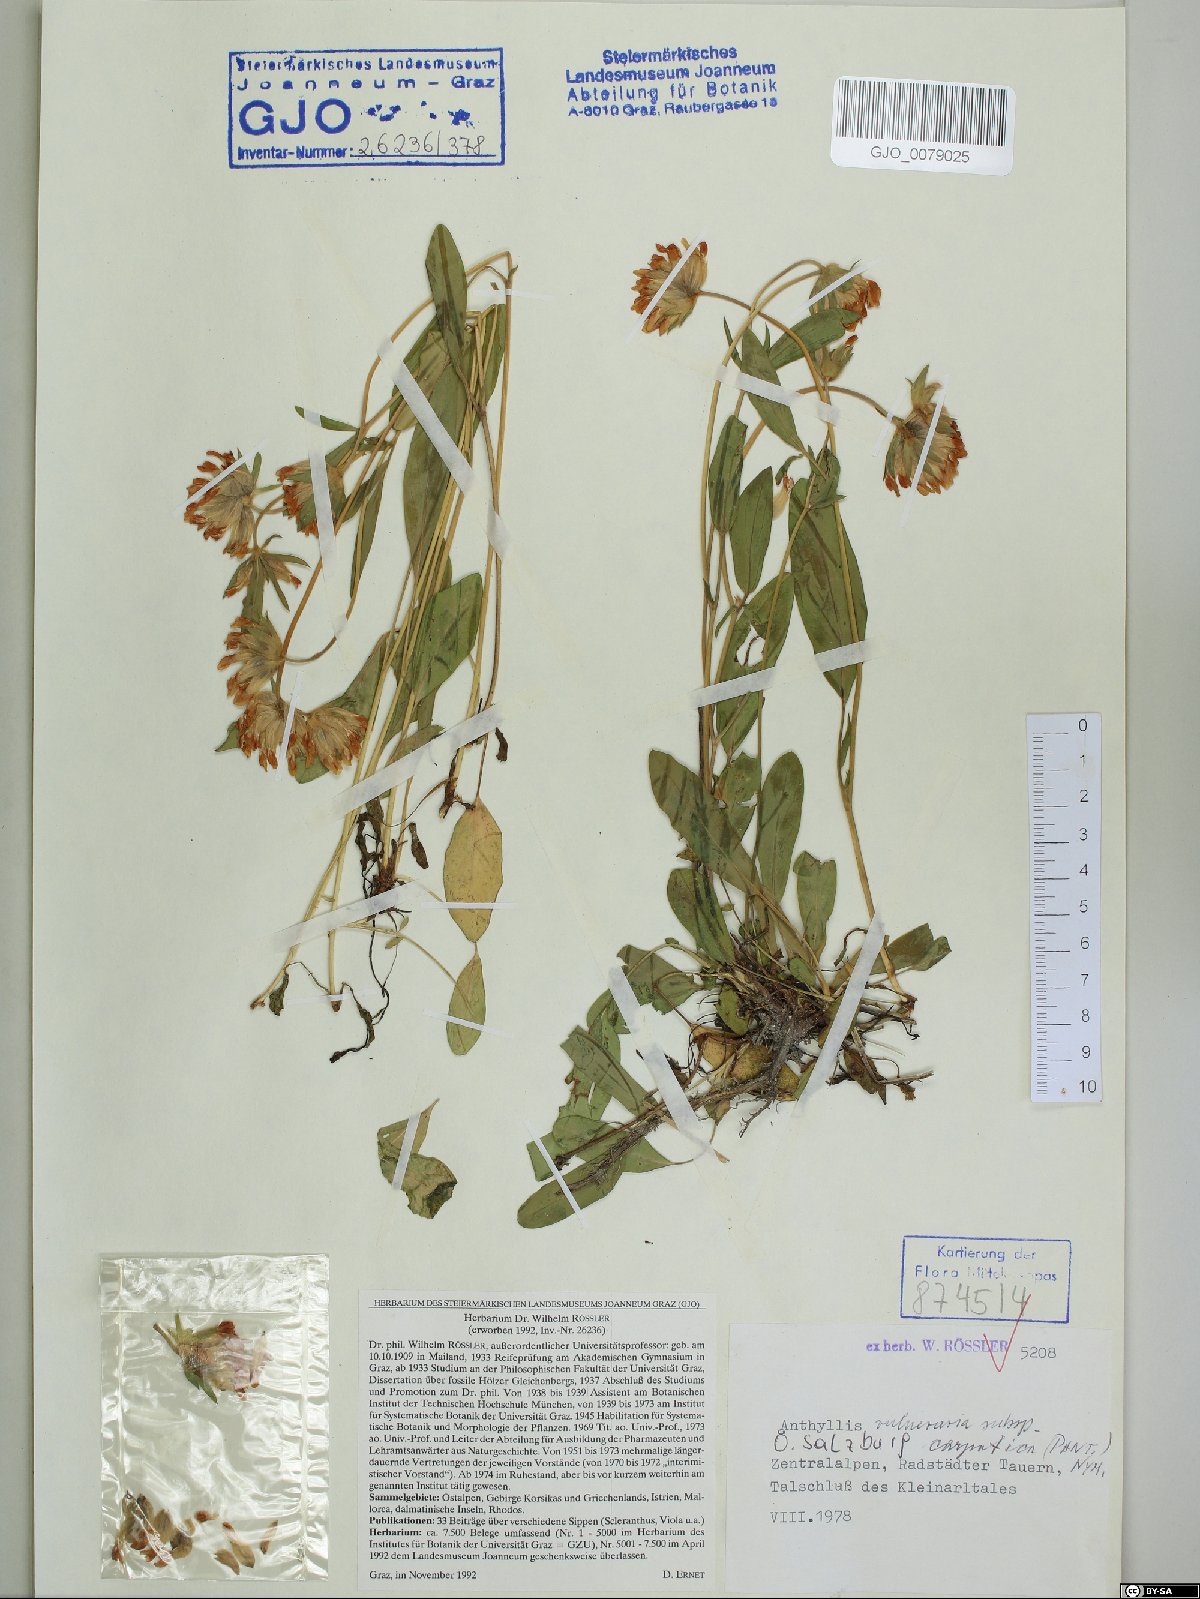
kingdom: Plantae
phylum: Tracheophyta
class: Magnoliopsida
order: Fabales
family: Fabaceae
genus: Anthyllis
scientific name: Anthyllis vulneraria
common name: Kidney vetch
